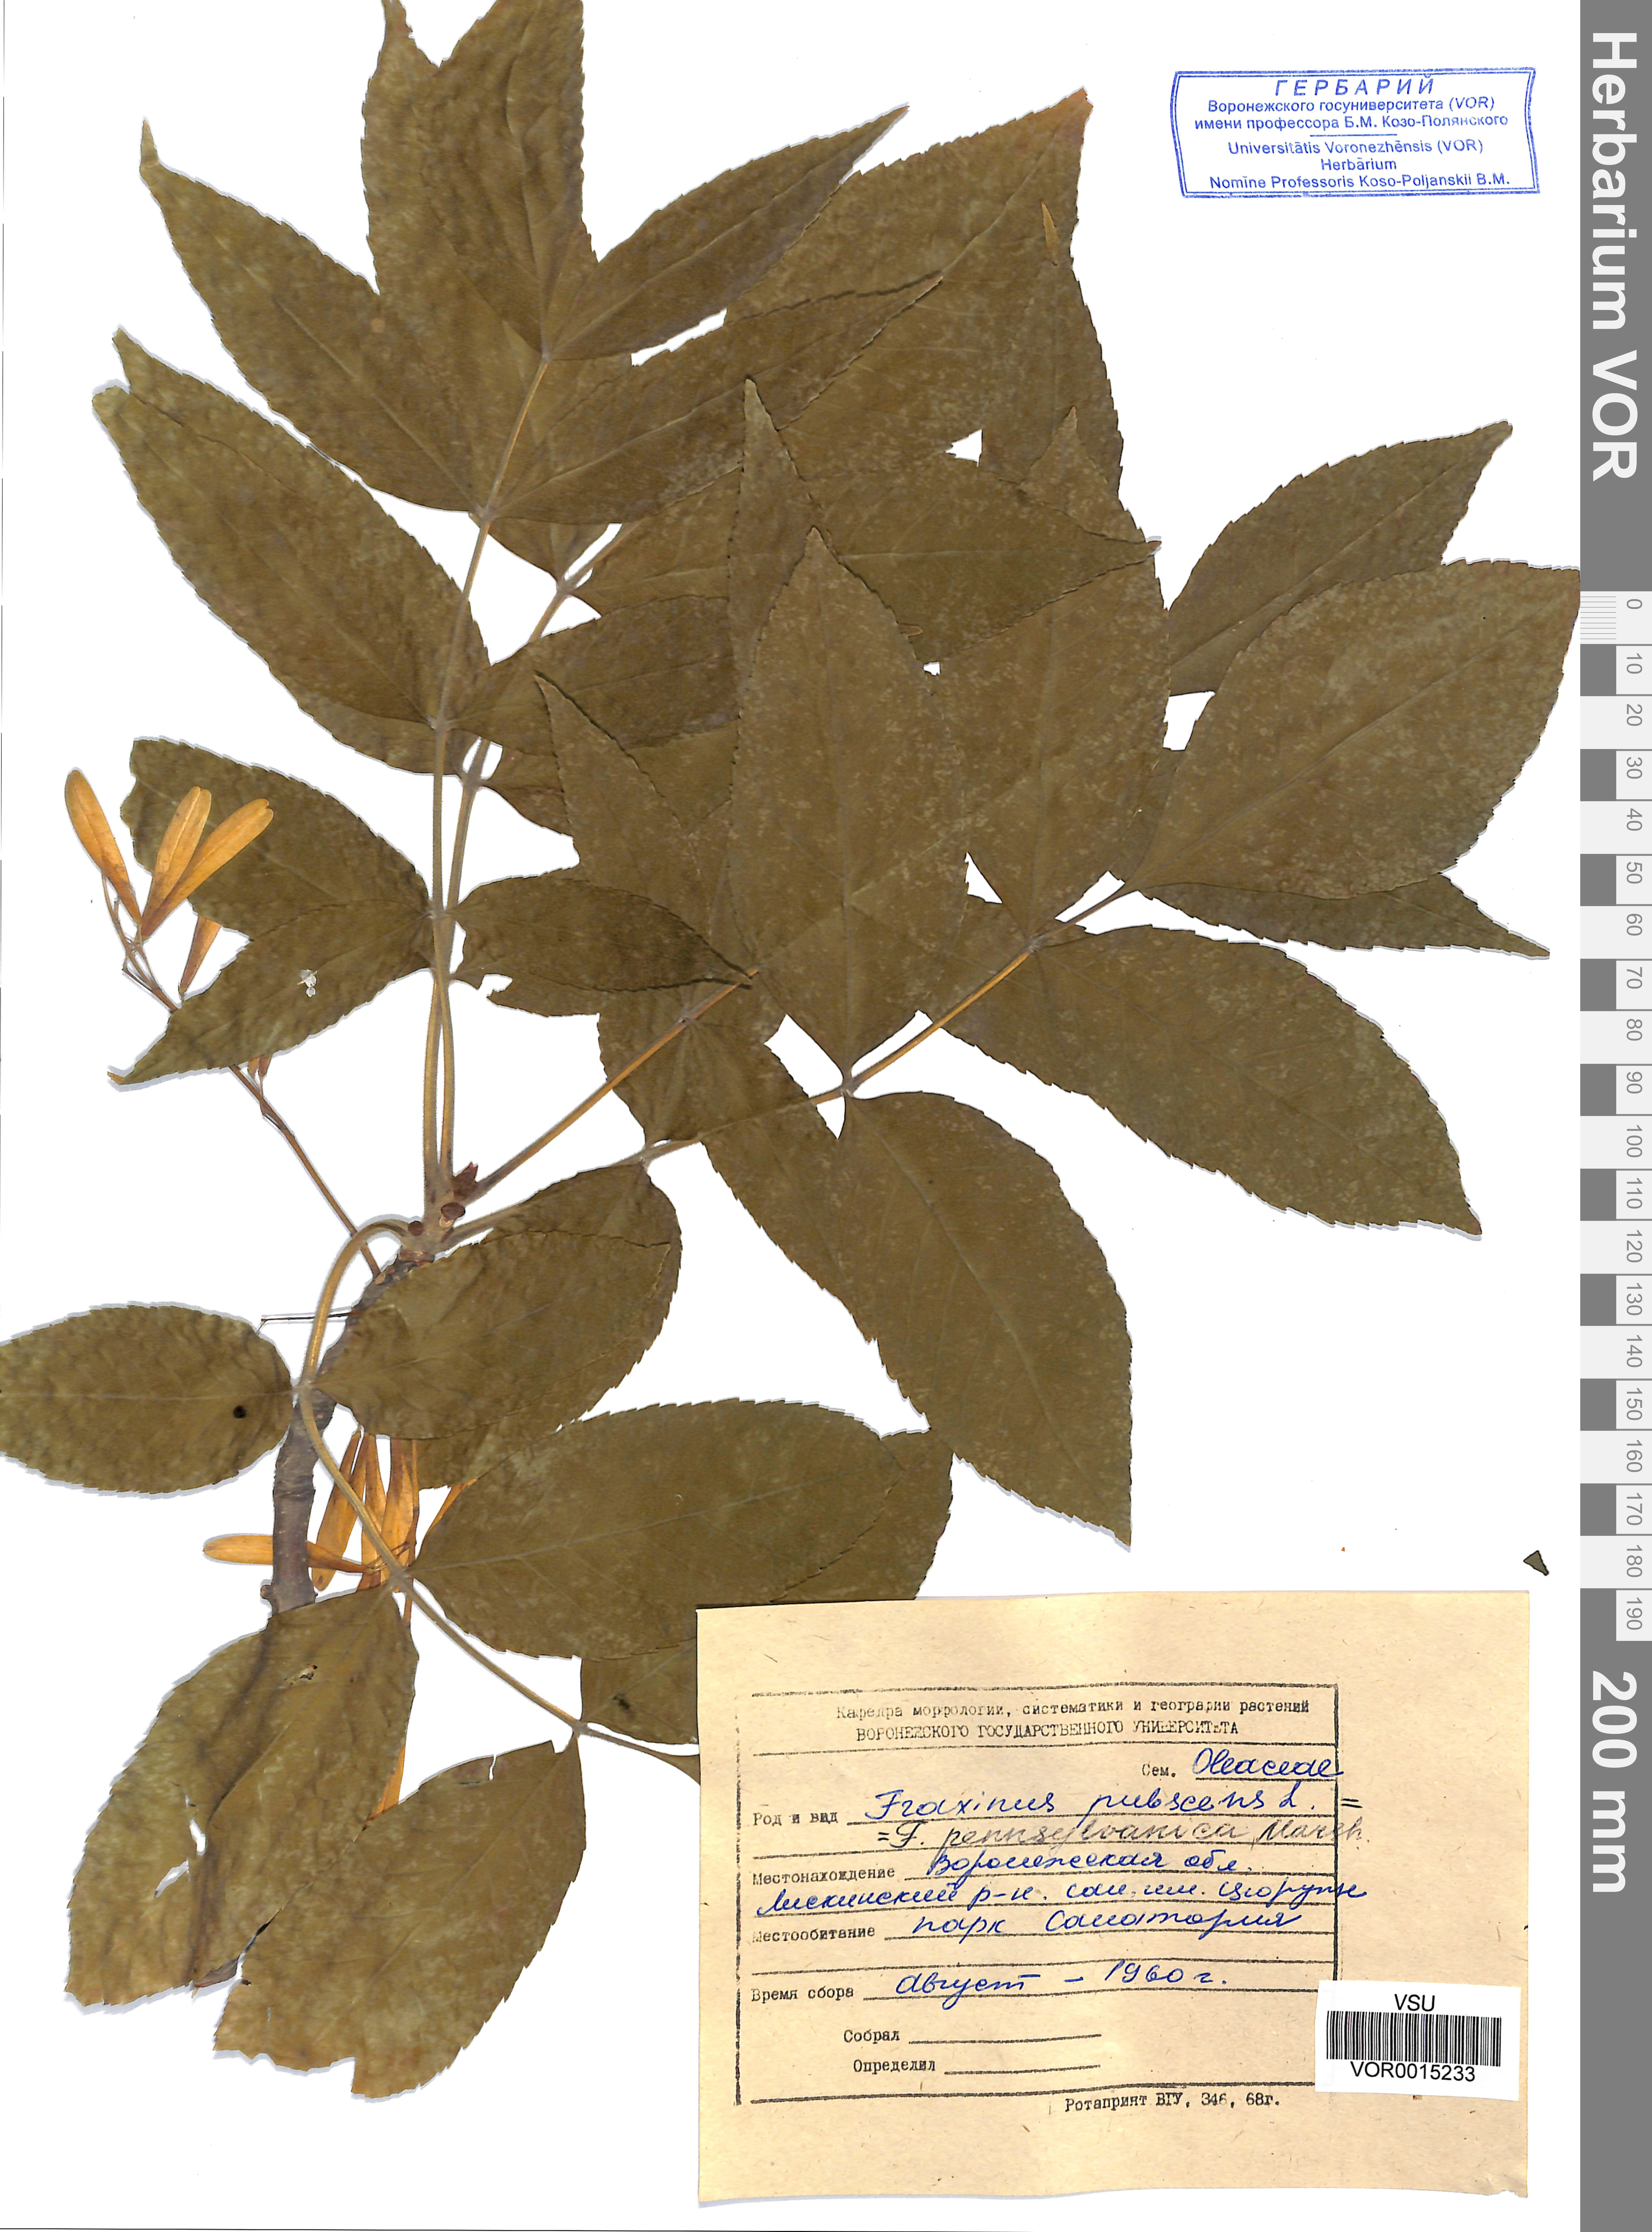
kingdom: Plantae
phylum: Tracheophyta
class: Magnoliopsida
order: Lamiales
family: Oleaceae
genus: Fraxinus
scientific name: Fraxinus pennsylvanica
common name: Green ash
